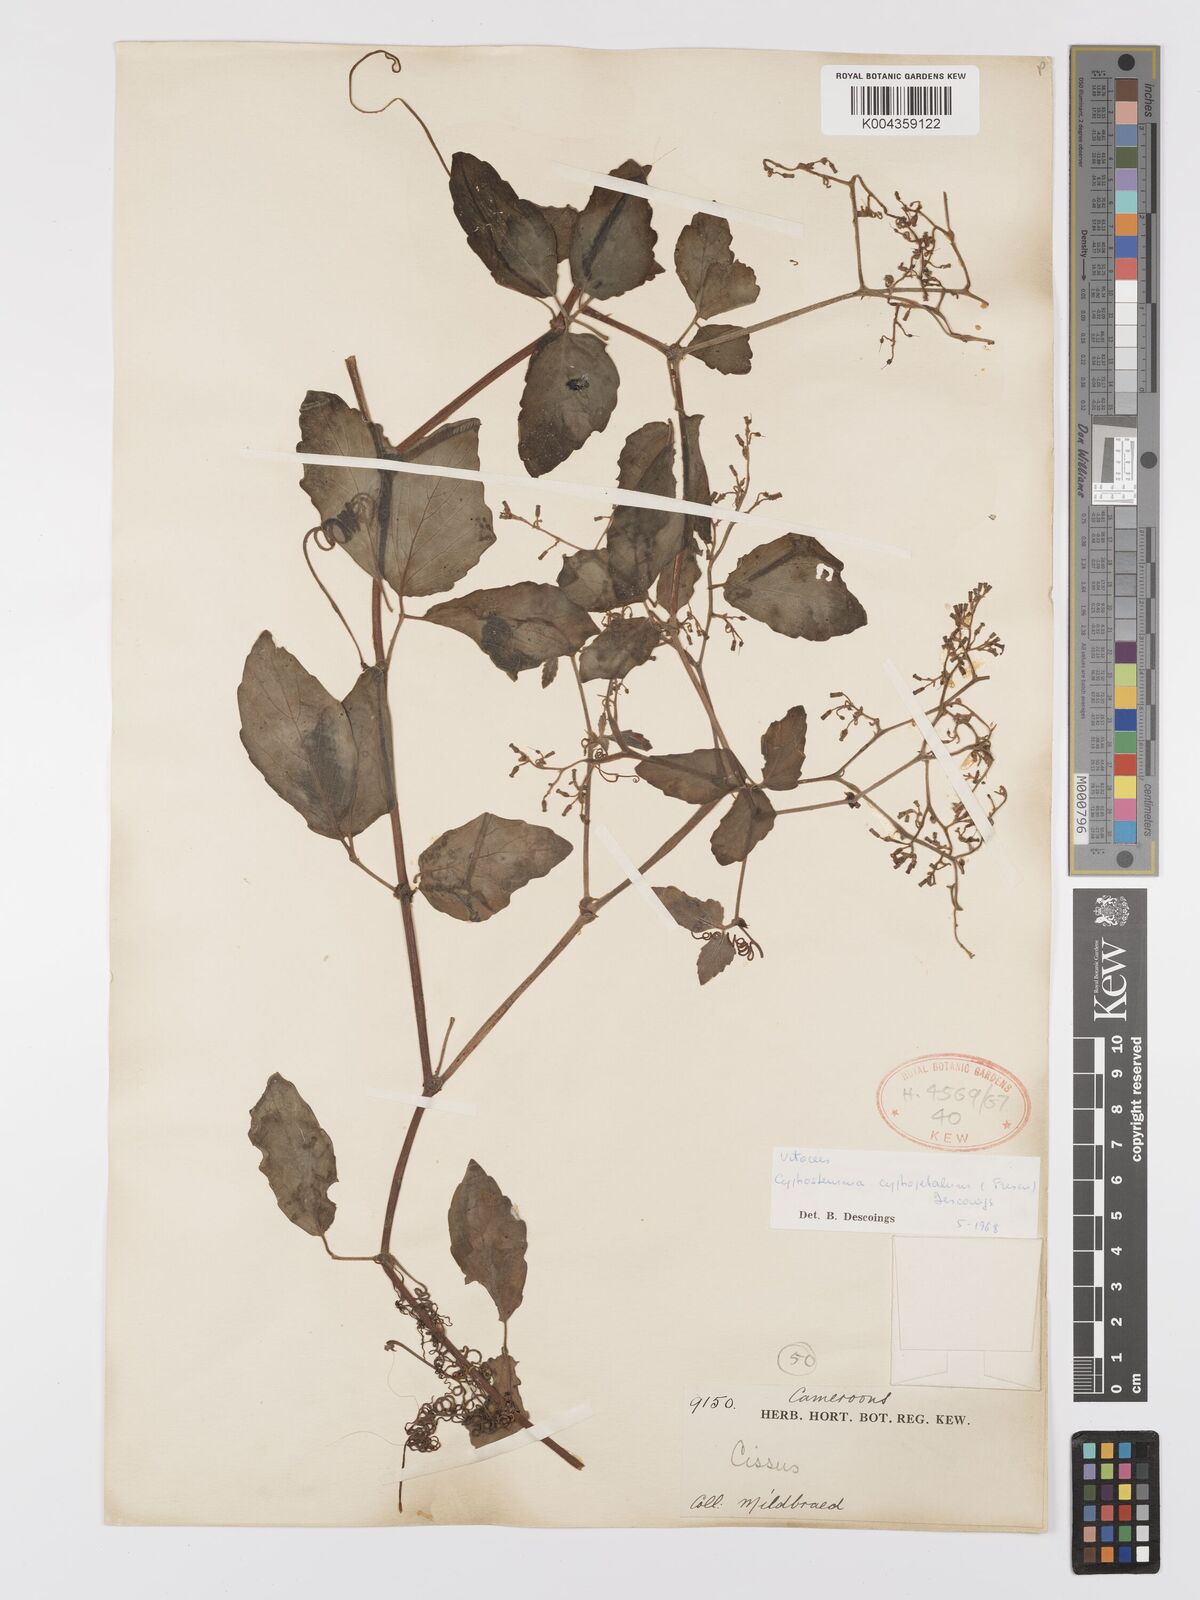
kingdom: Plantae
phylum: Tracheophyta
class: Magnoliopsida
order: Vitales
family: Vitaceae
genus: Cyphostemma
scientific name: Cyphostemma cyphopetalum
